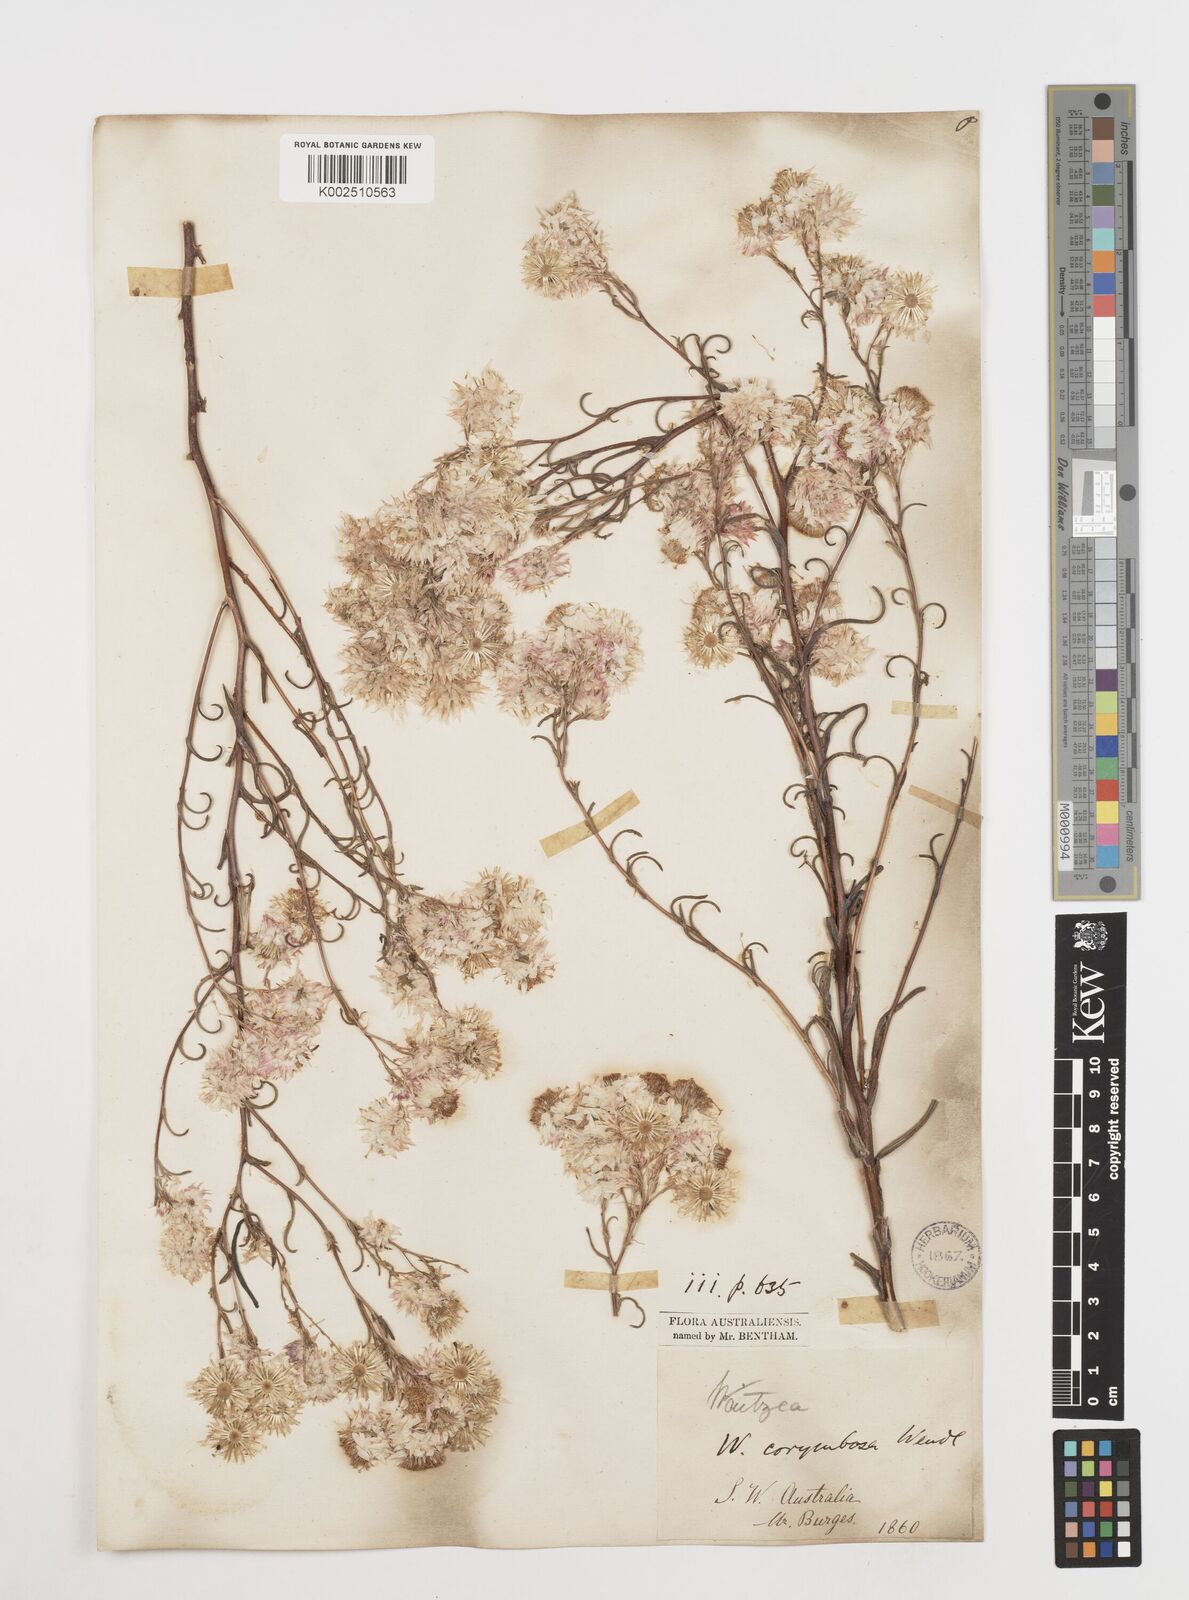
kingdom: Plantae
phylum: Tracheophyta
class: Magnoliopsida
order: Asterales
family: Asteraceae
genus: Waitzia
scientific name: Waitzia acuminata
